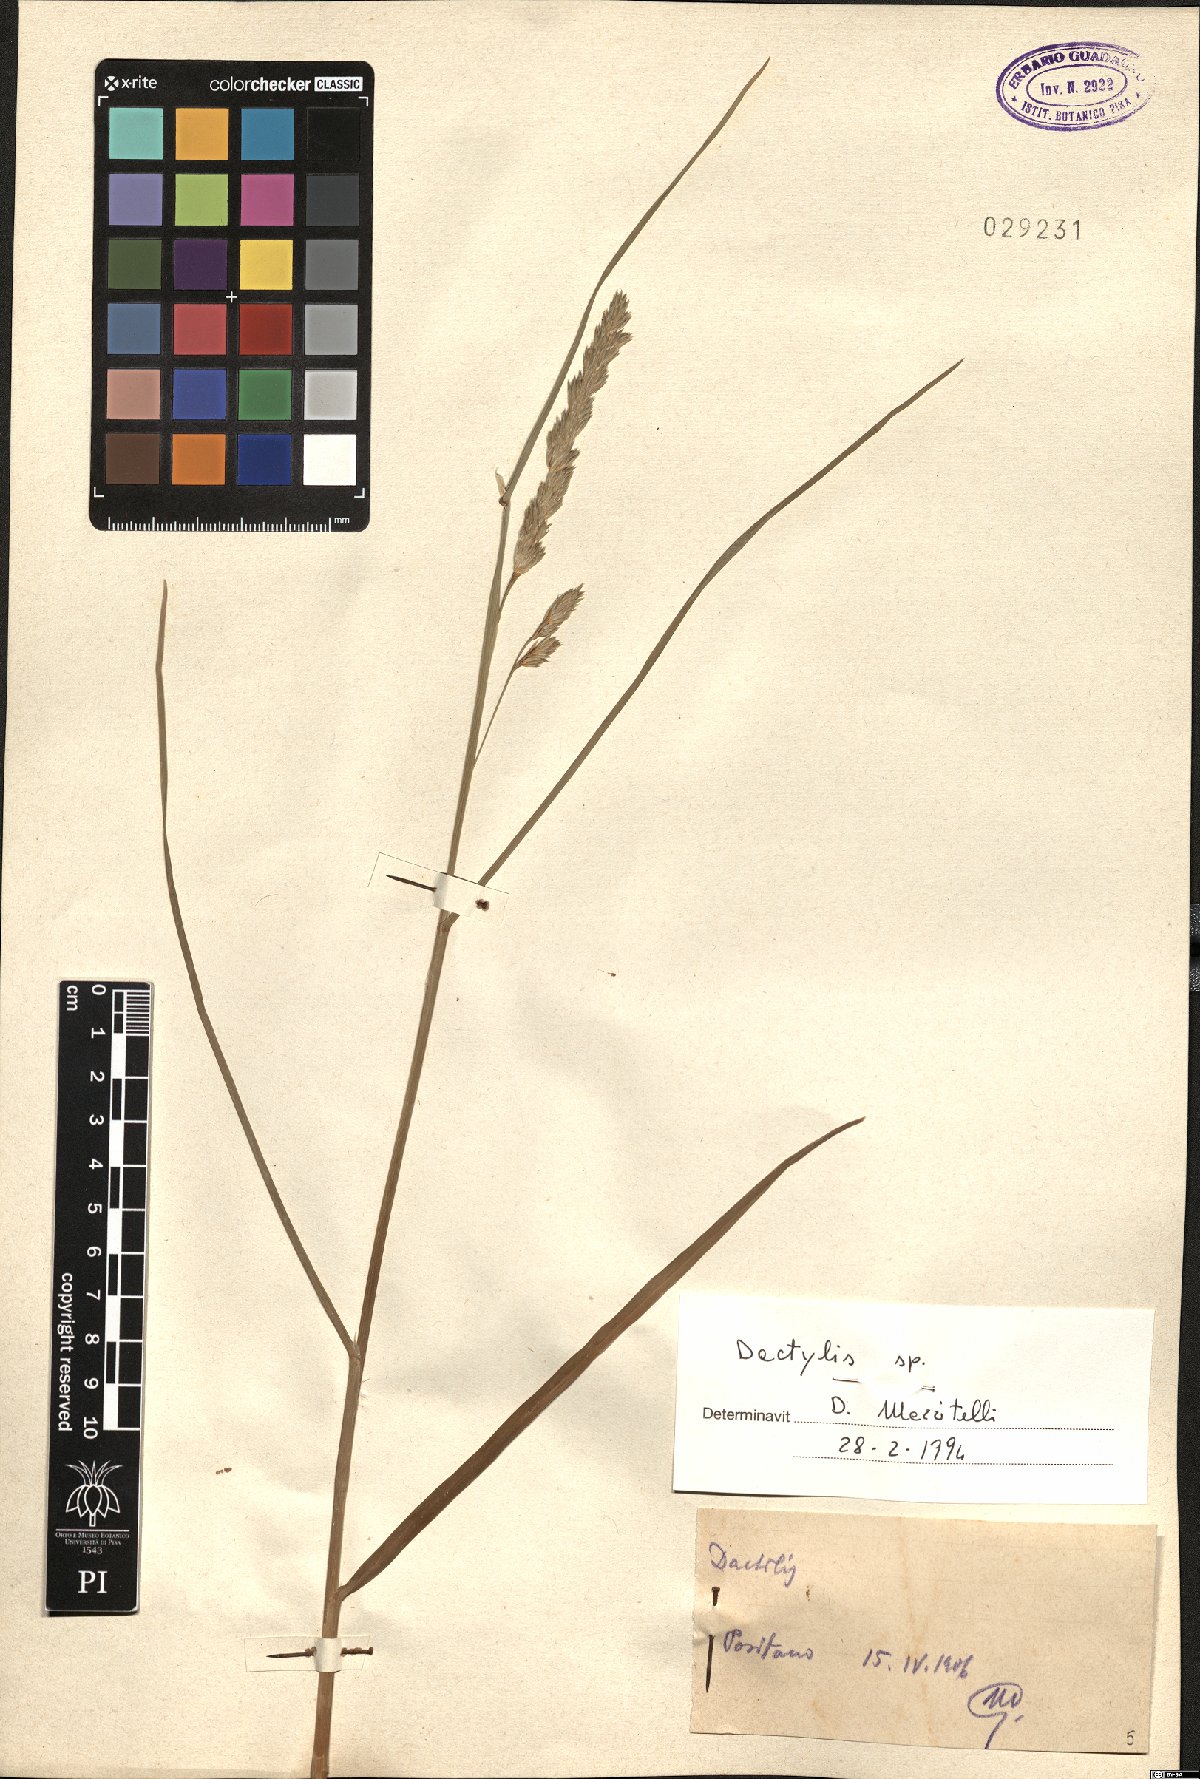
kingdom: Plantae
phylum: Tracheophyta
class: Liliopsida
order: Poales
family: Poaceae
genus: Dactylis
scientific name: Dactylis
